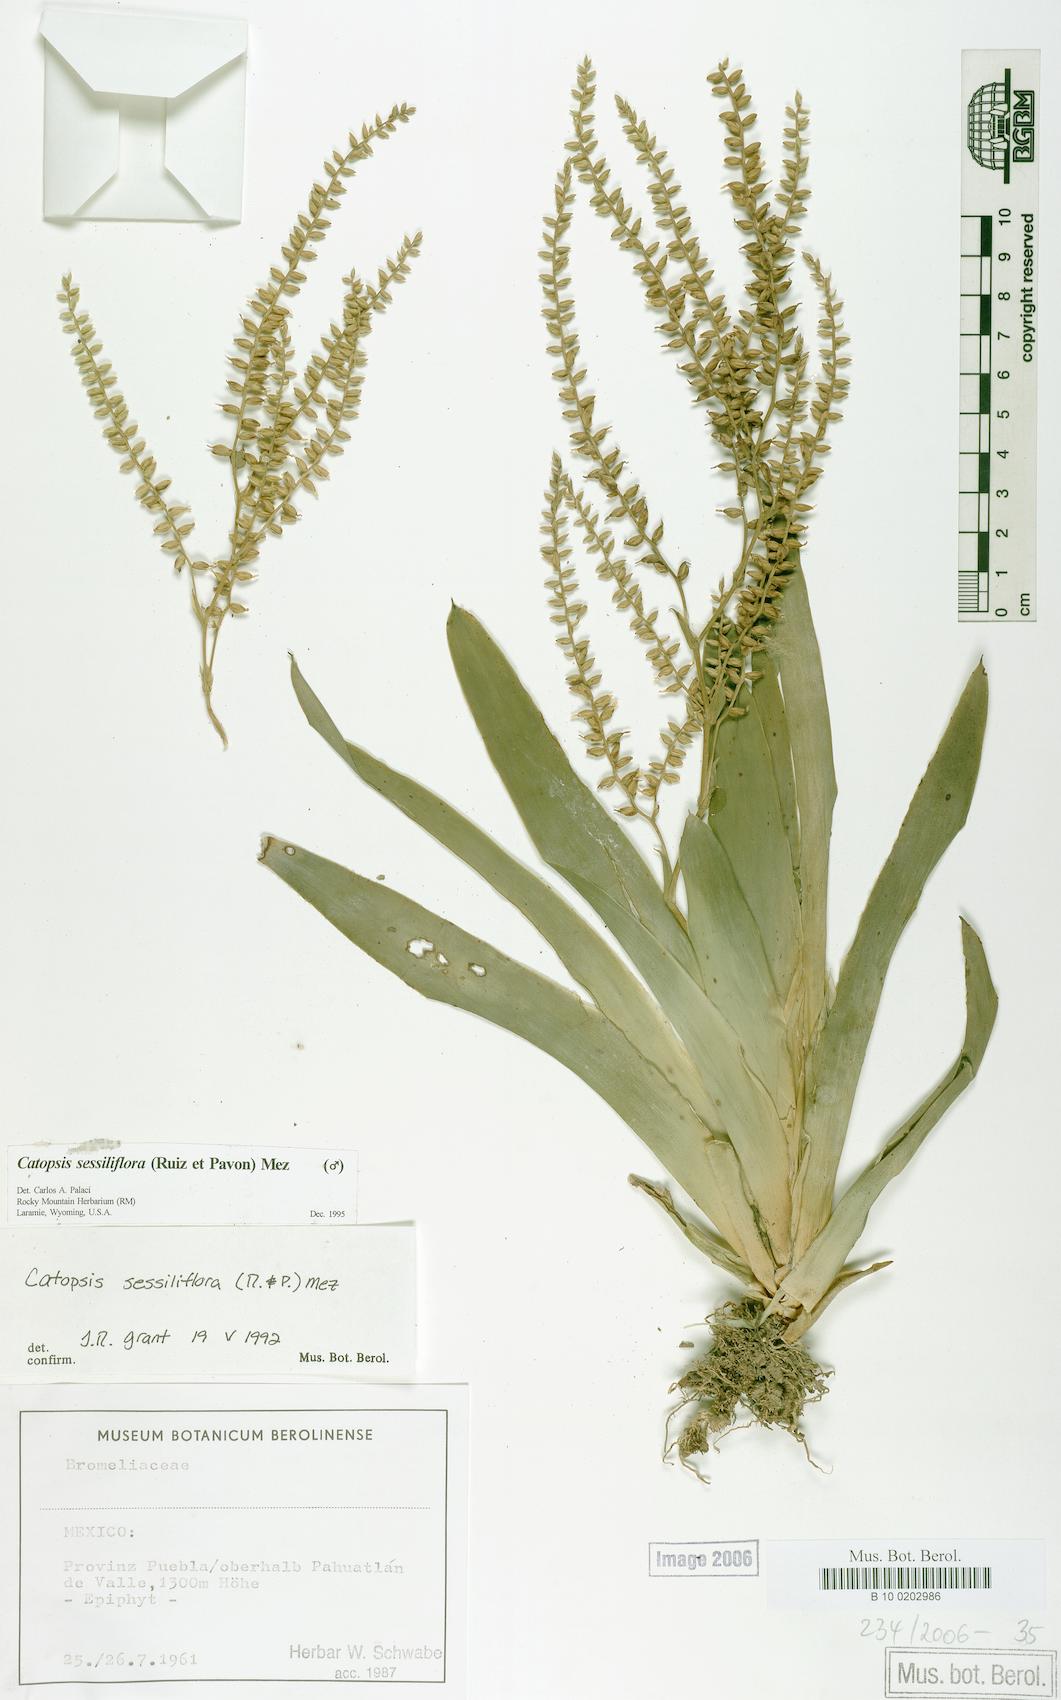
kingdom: Plantae
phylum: Tracheophyta
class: Liliopsida
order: Poales
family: Bromeliaceae
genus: Catopsis
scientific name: Catopsis sessiliflora
